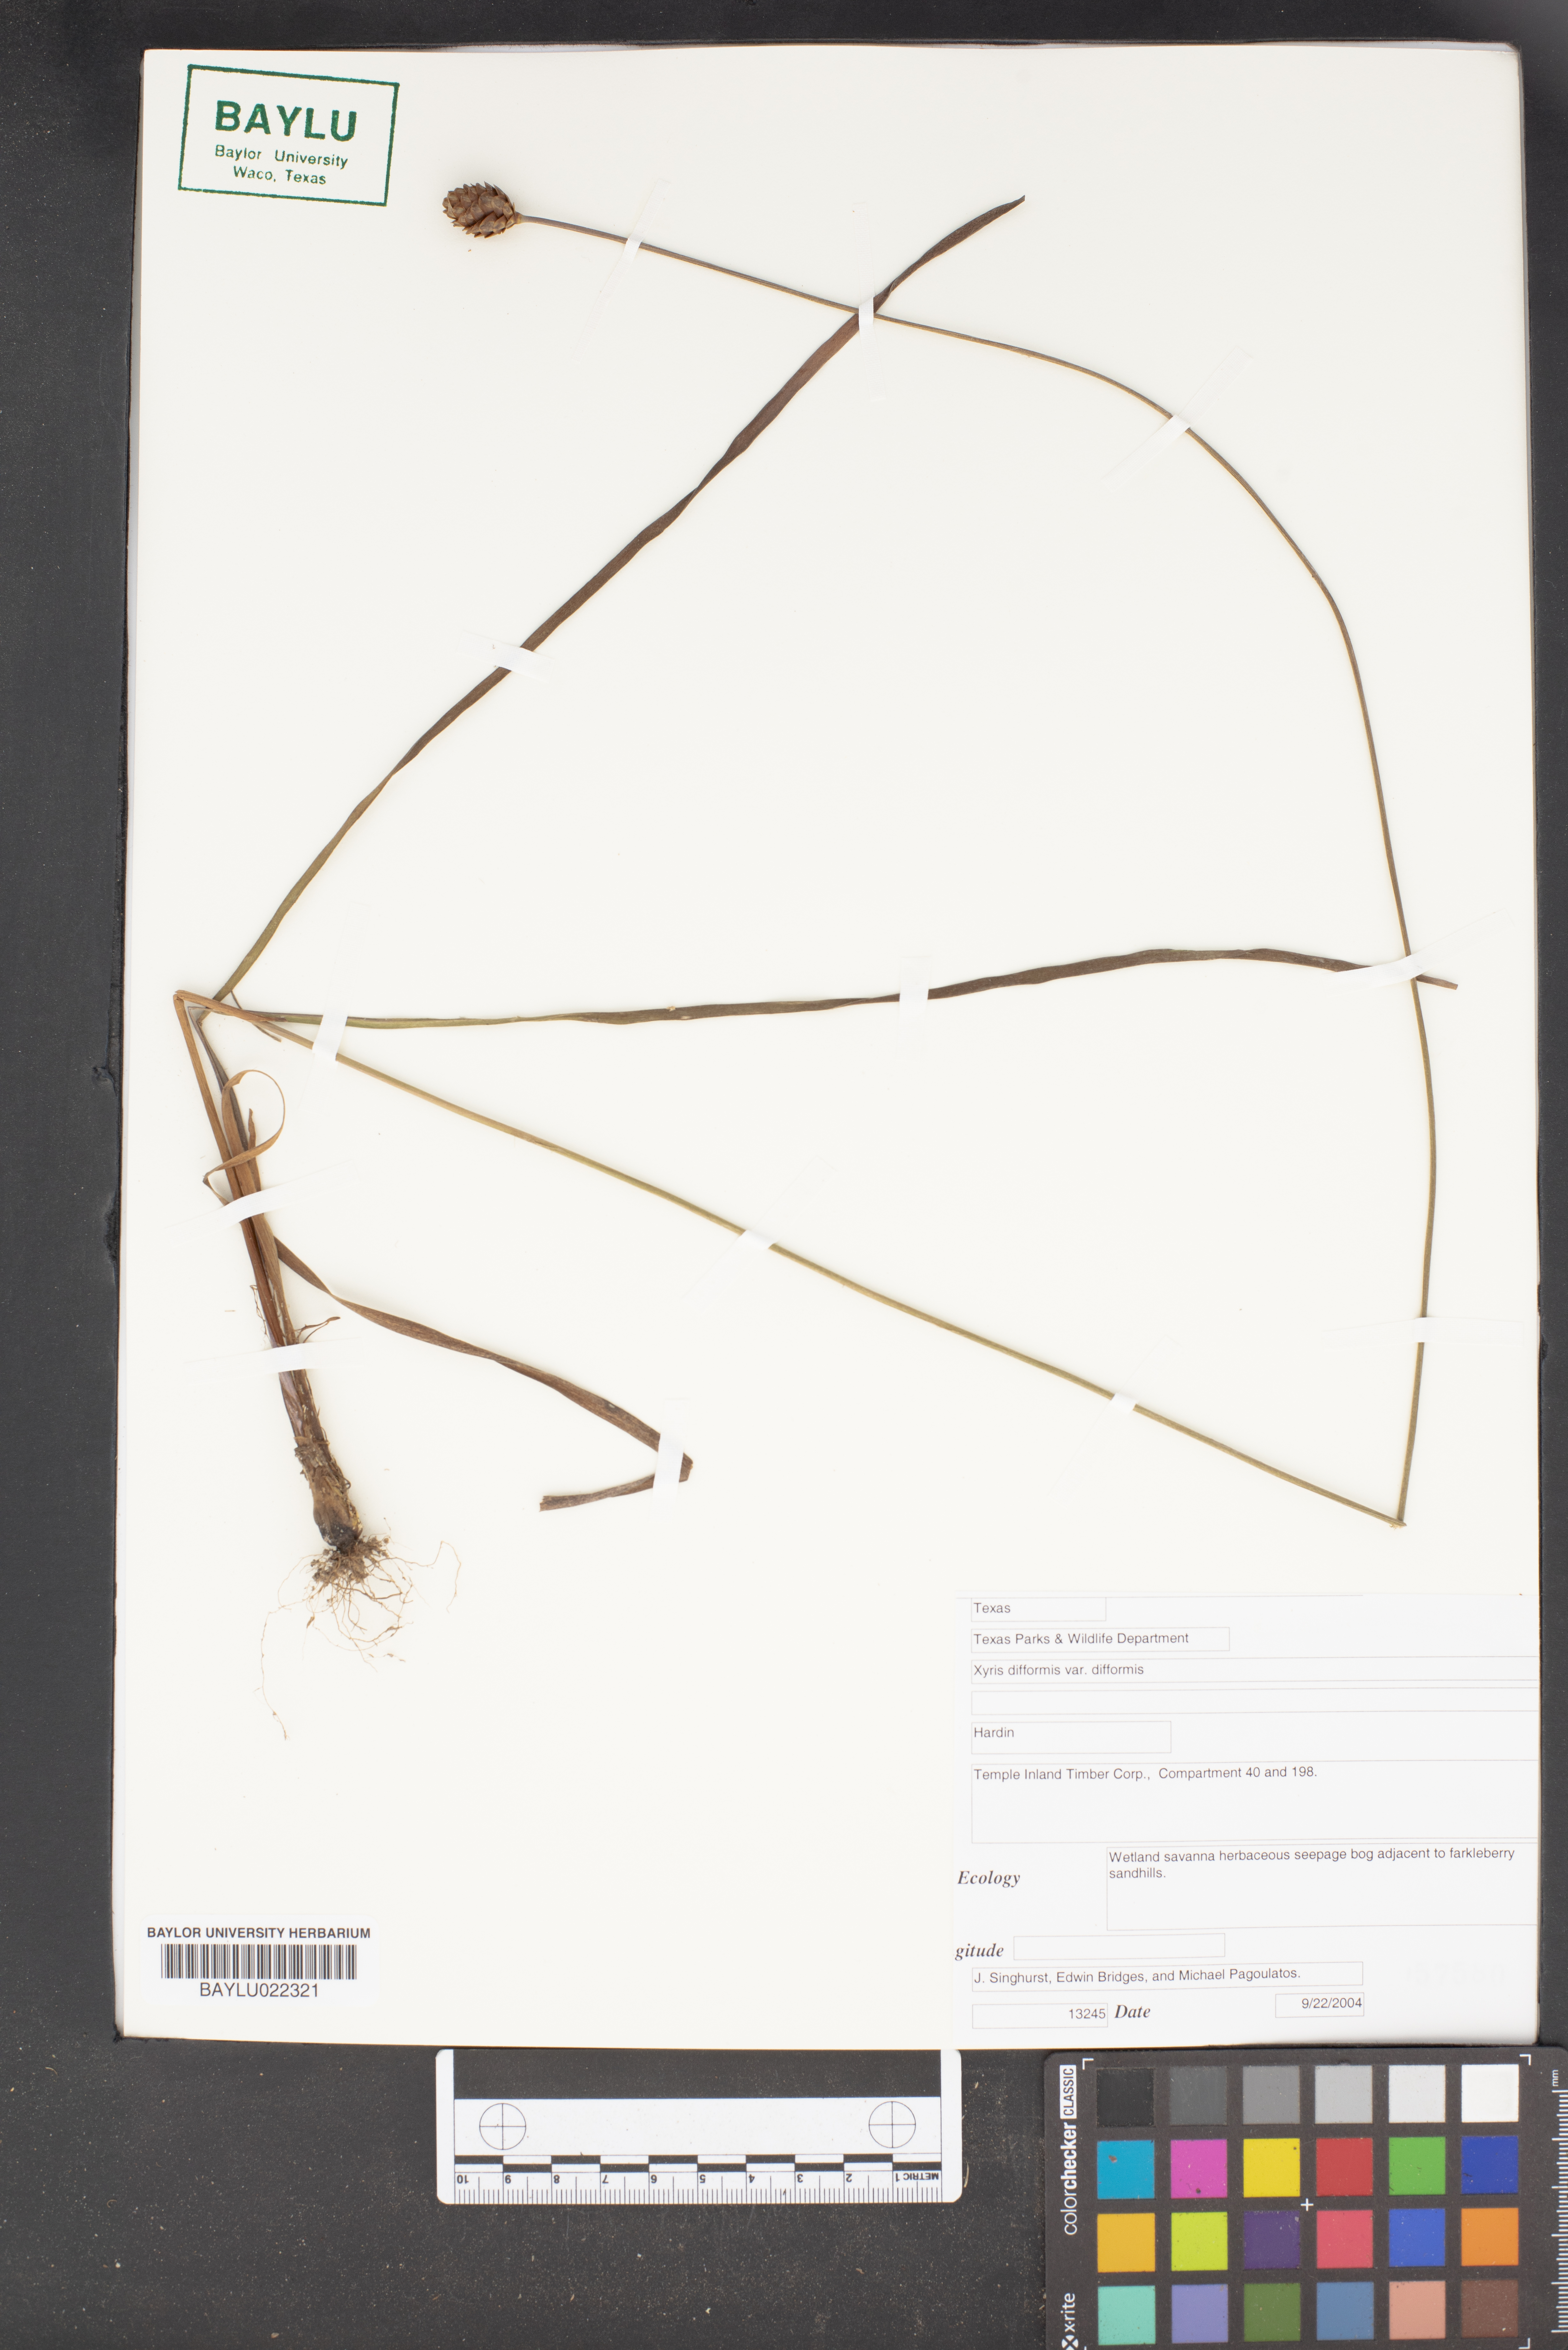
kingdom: Plantae
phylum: Tracheophyta
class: Liliopsida
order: Poales
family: Xyridaceae
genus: Xyris
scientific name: Xyris difformis
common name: Bog yellow-eyed-grass
